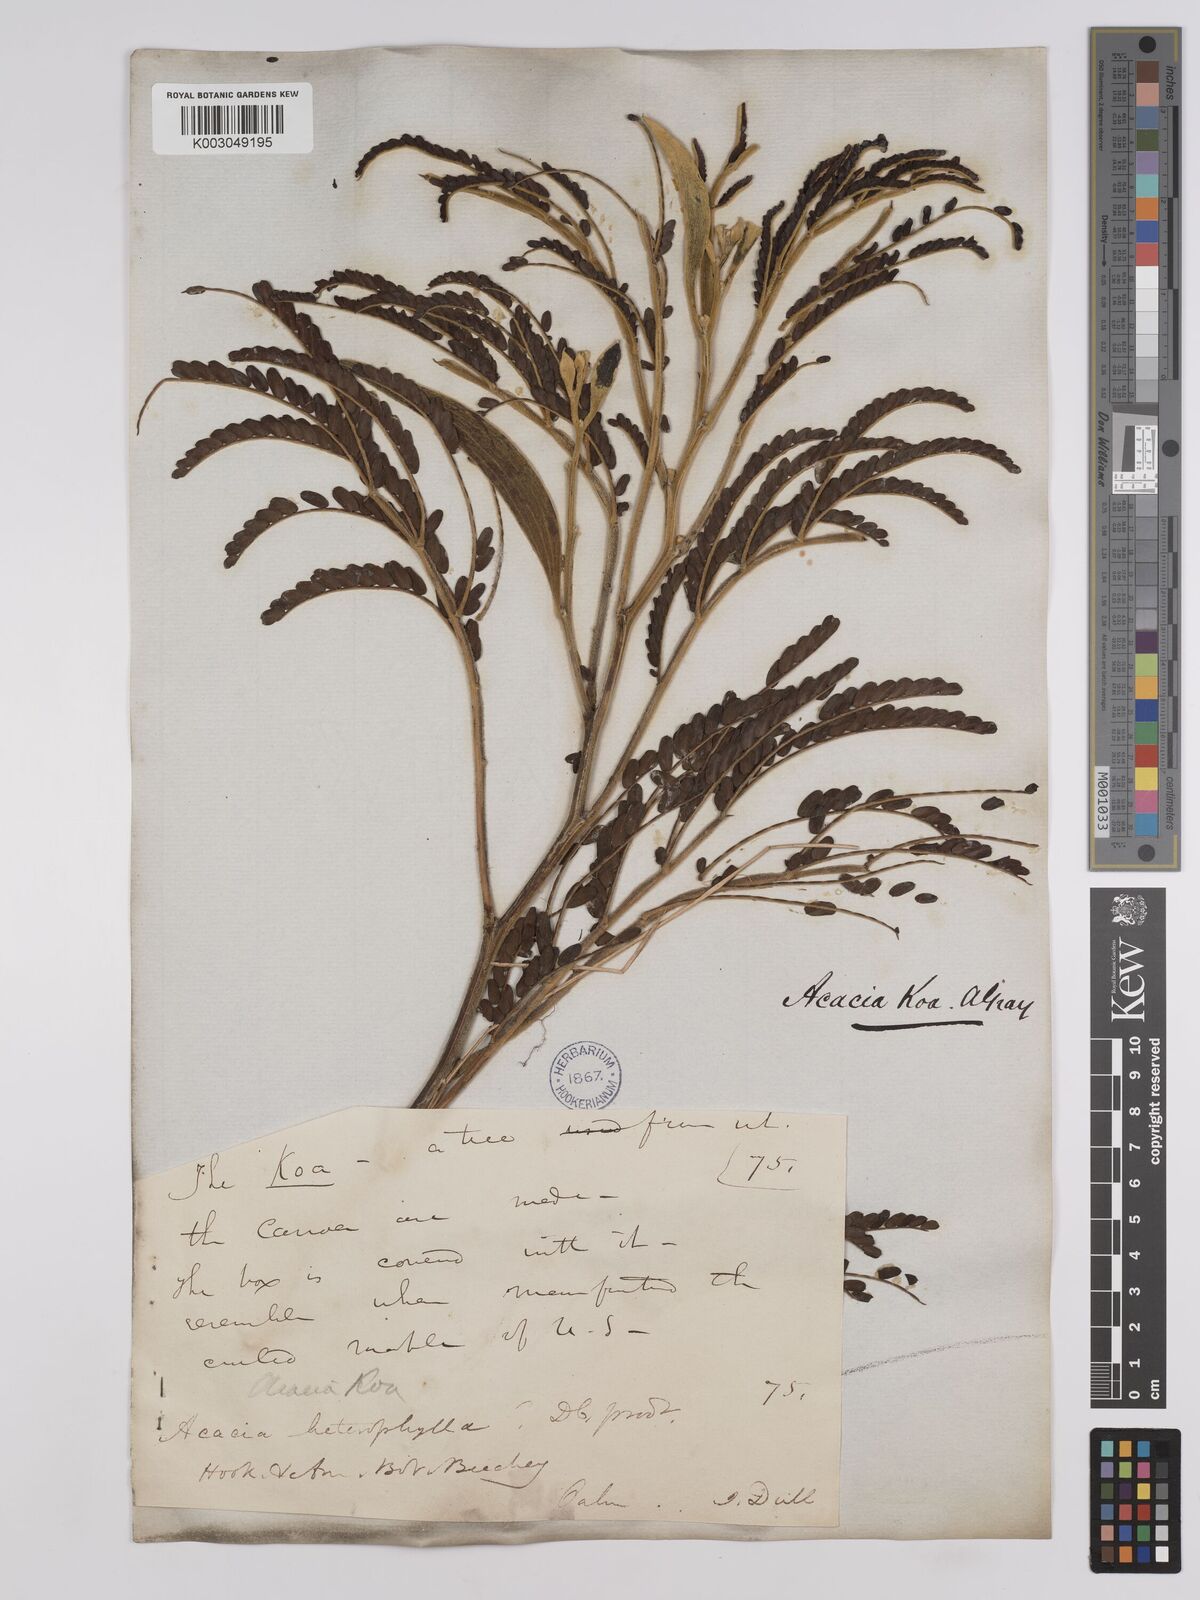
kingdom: Plantae
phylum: Tracheophyta
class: Magnoliopsida
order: Fabales
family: Fabaceae
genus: Acacia
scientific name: Acacia koa
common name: Gray koa
